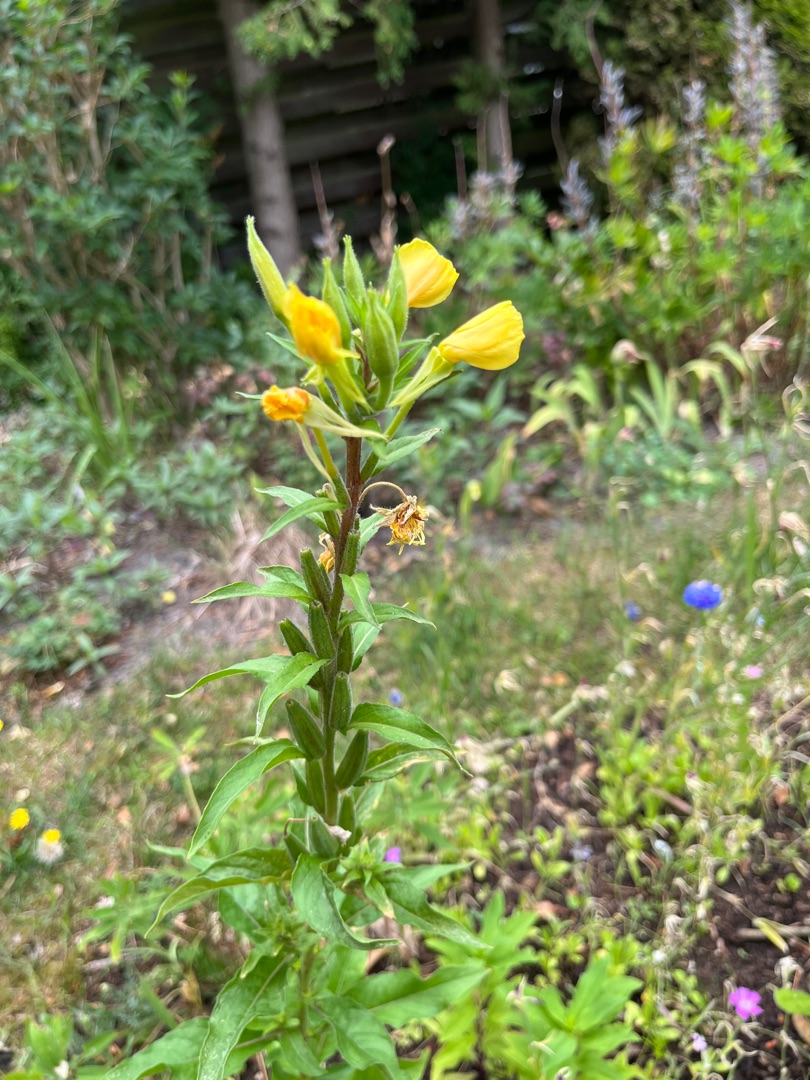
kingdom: Plantae
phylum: Tracheophyta
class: Magnoliopsida
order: Myrtales
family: Onagraceae
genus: Oenothera
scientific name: Oenothera biennis
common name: Rødfrugtet natlys
